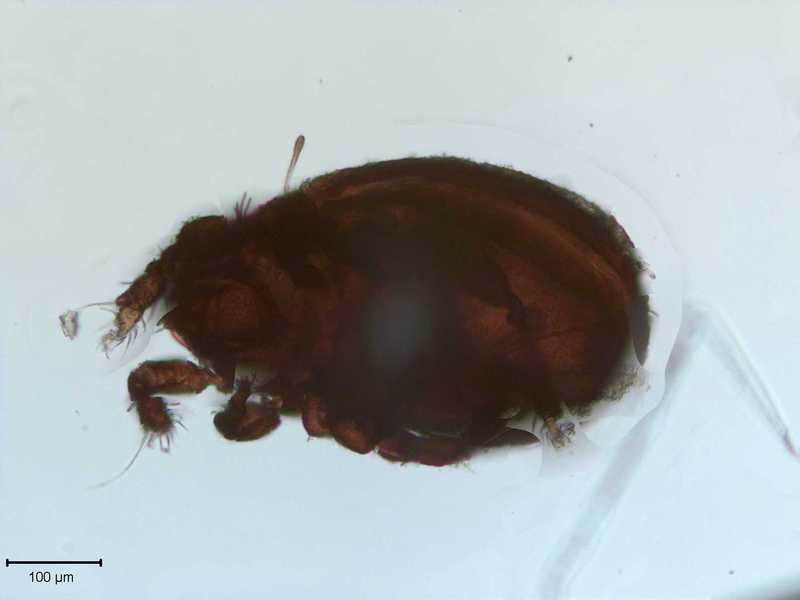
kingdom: Animalia
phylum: Arthropoda
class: Arachnida
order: Sarcoptiformes
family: Scutoverticidae
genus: Scutovertex
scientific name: Scutovertex sculptus
